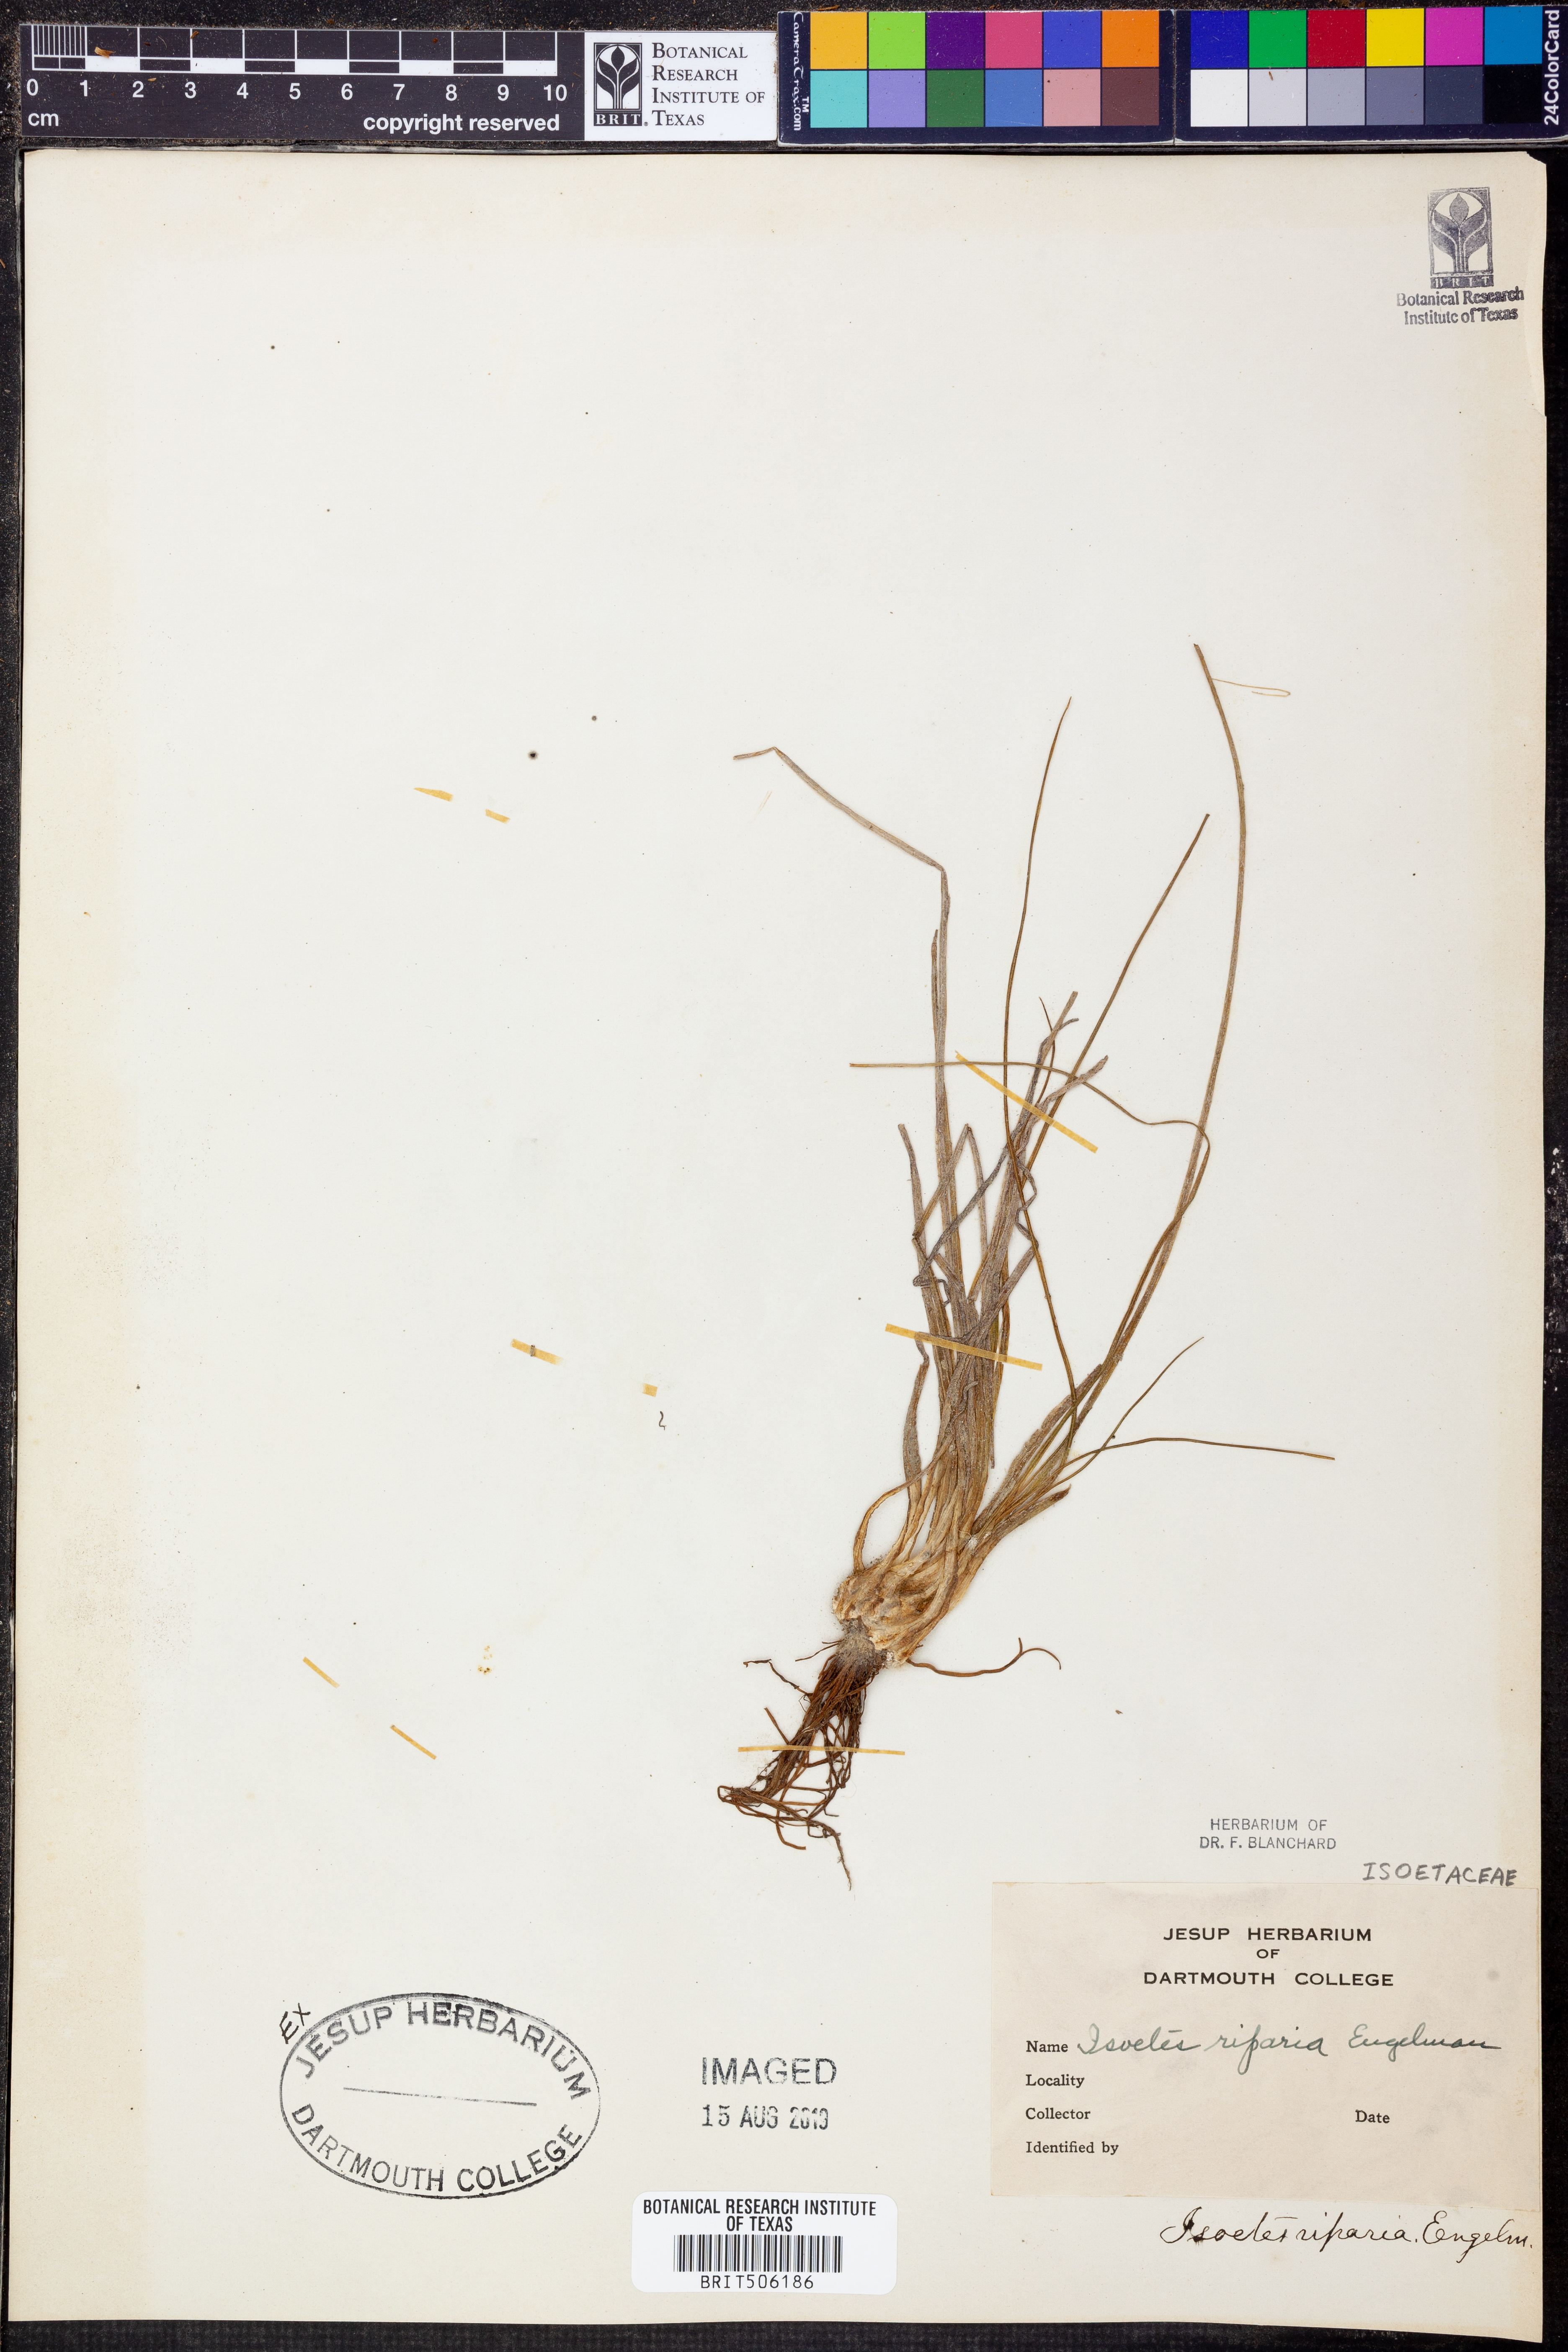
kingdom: Plantae
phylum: Tracheophyta
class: Lycopodiopsida
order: Isoetales
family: Isoetaceae
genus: Isoetes
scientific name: Isoetes riparia
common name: Riverbank quillwort
